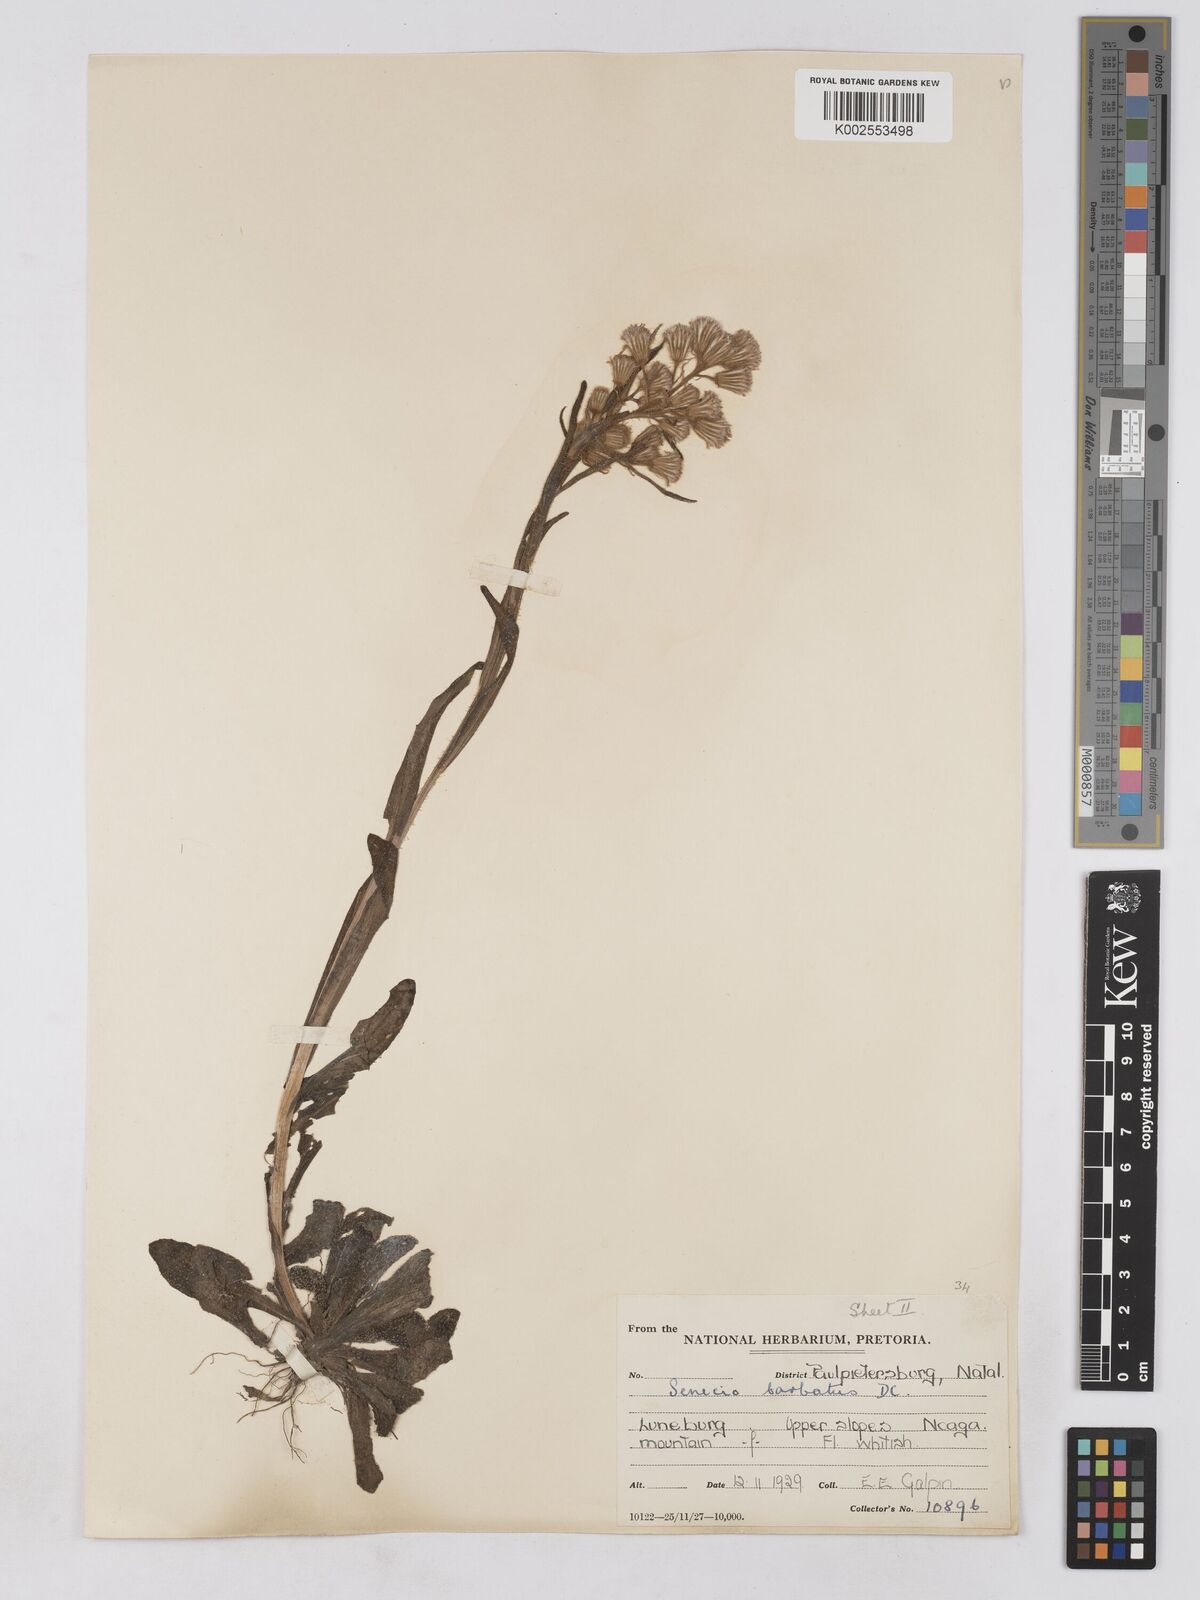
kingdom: Plantae
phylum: Tracheophyta
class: Magnoliopsida
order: Asterales
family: Asteraceae
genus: Senecio
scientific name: Senecio barbatus
